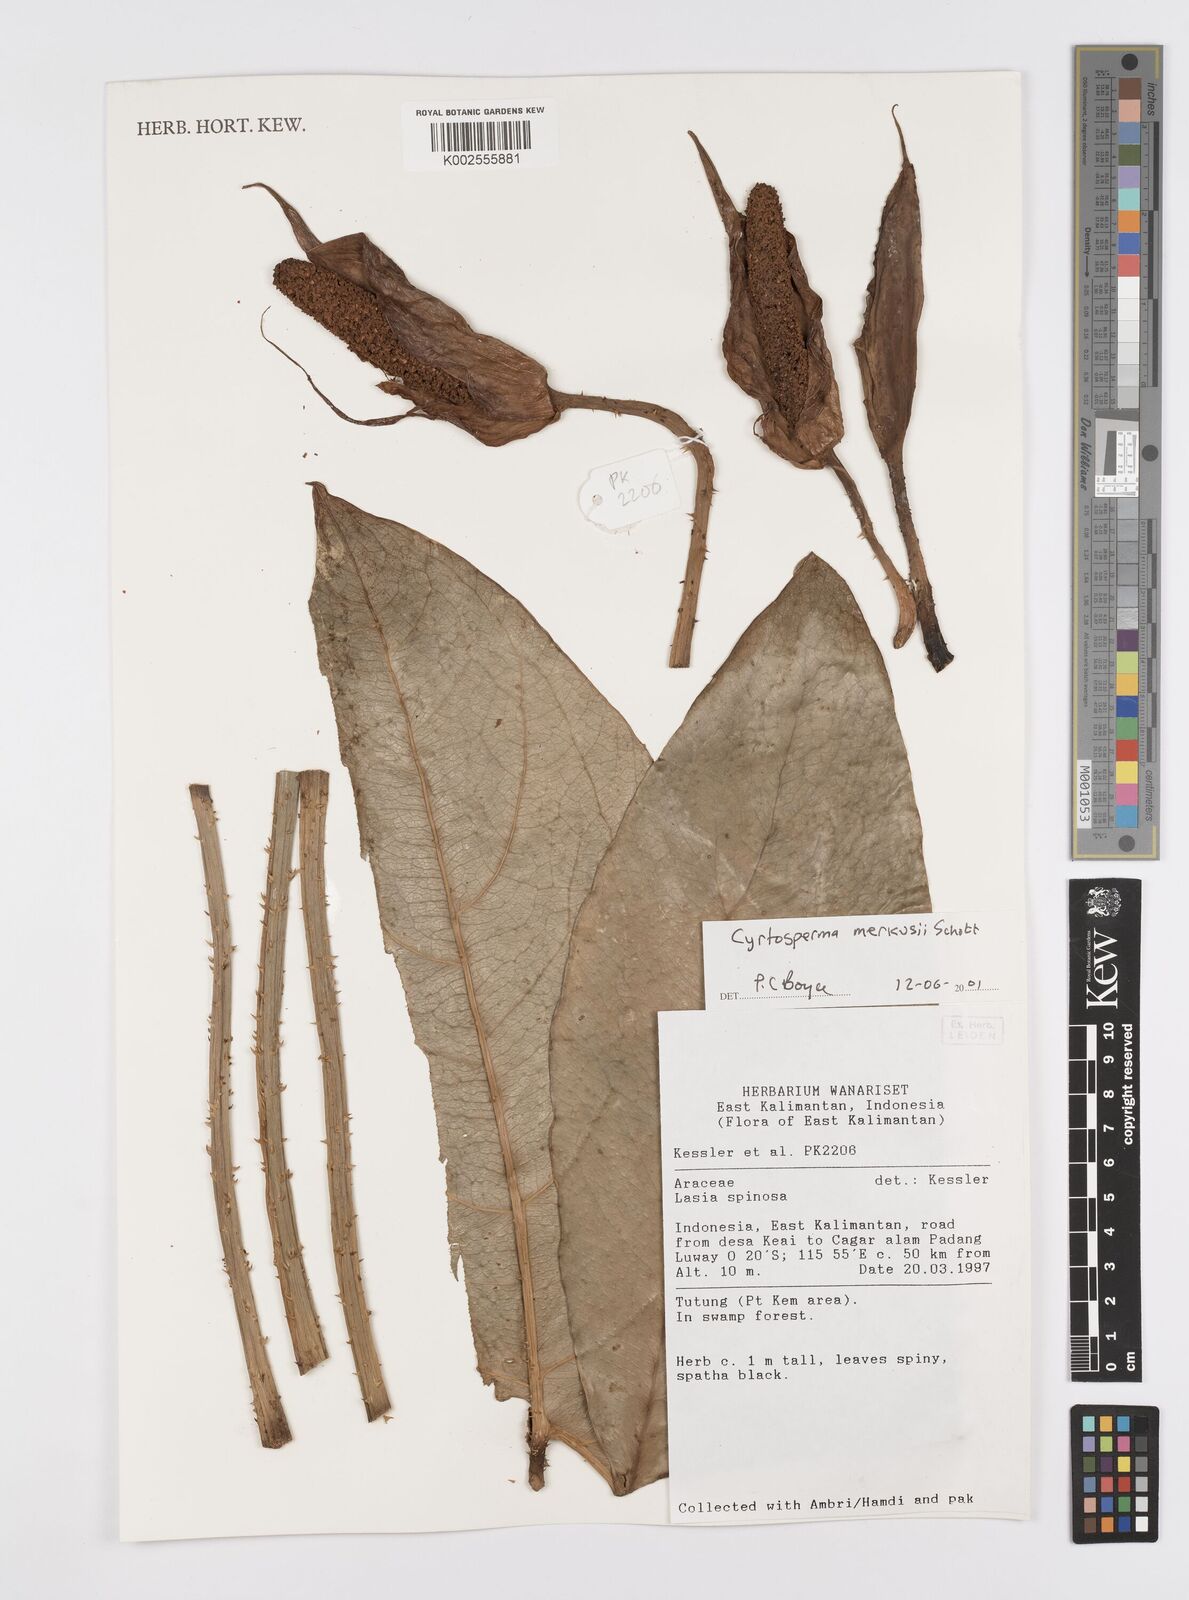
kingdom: Plantae
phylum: Tracheophyta
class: Liliopsida
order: Alismatales
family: Araceae
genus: Cyrtosperma
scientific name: Cyrtosperma merkusii
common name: Giant swamp-taro
